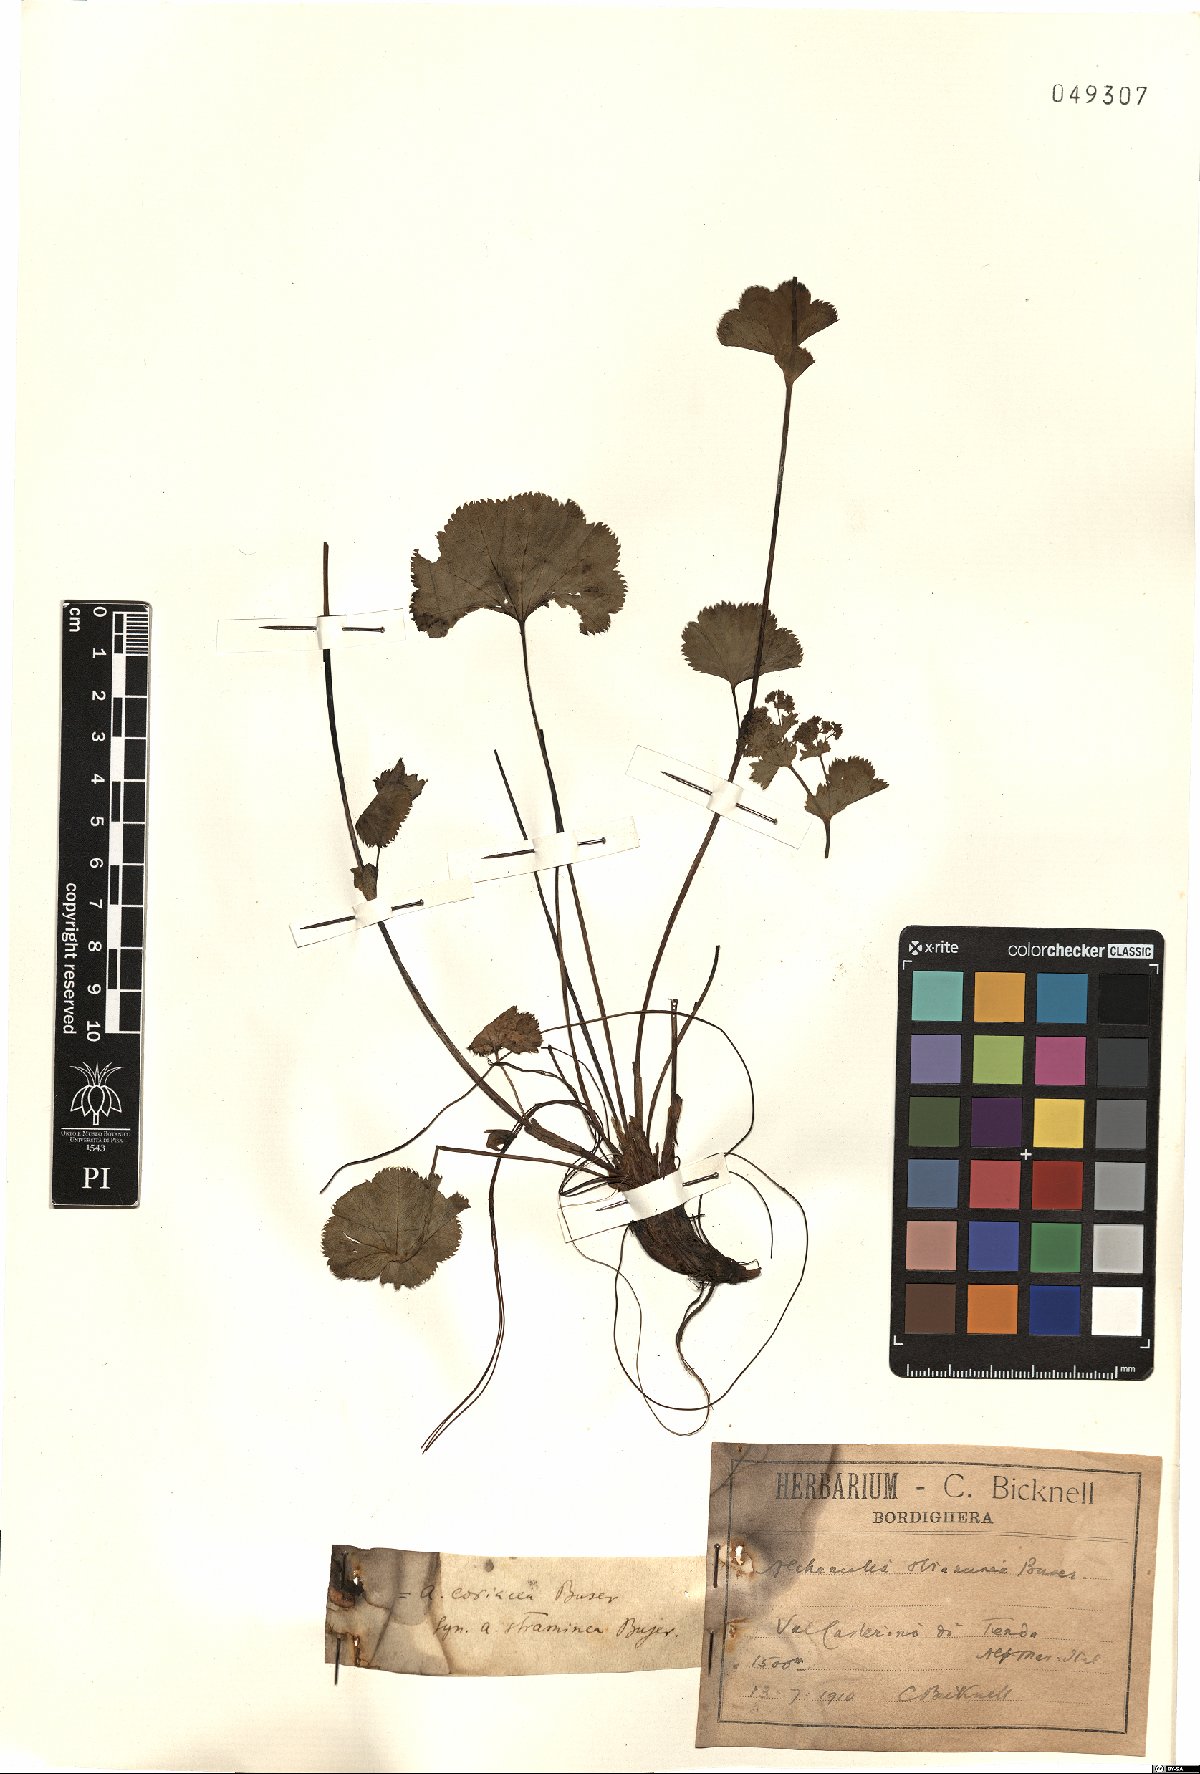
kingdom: Plantae
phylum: Tracheophyta
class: Magnoliopsida
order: Rosales
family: Rosaceae
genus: Alchemilla
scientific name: Alchemilla straminea
